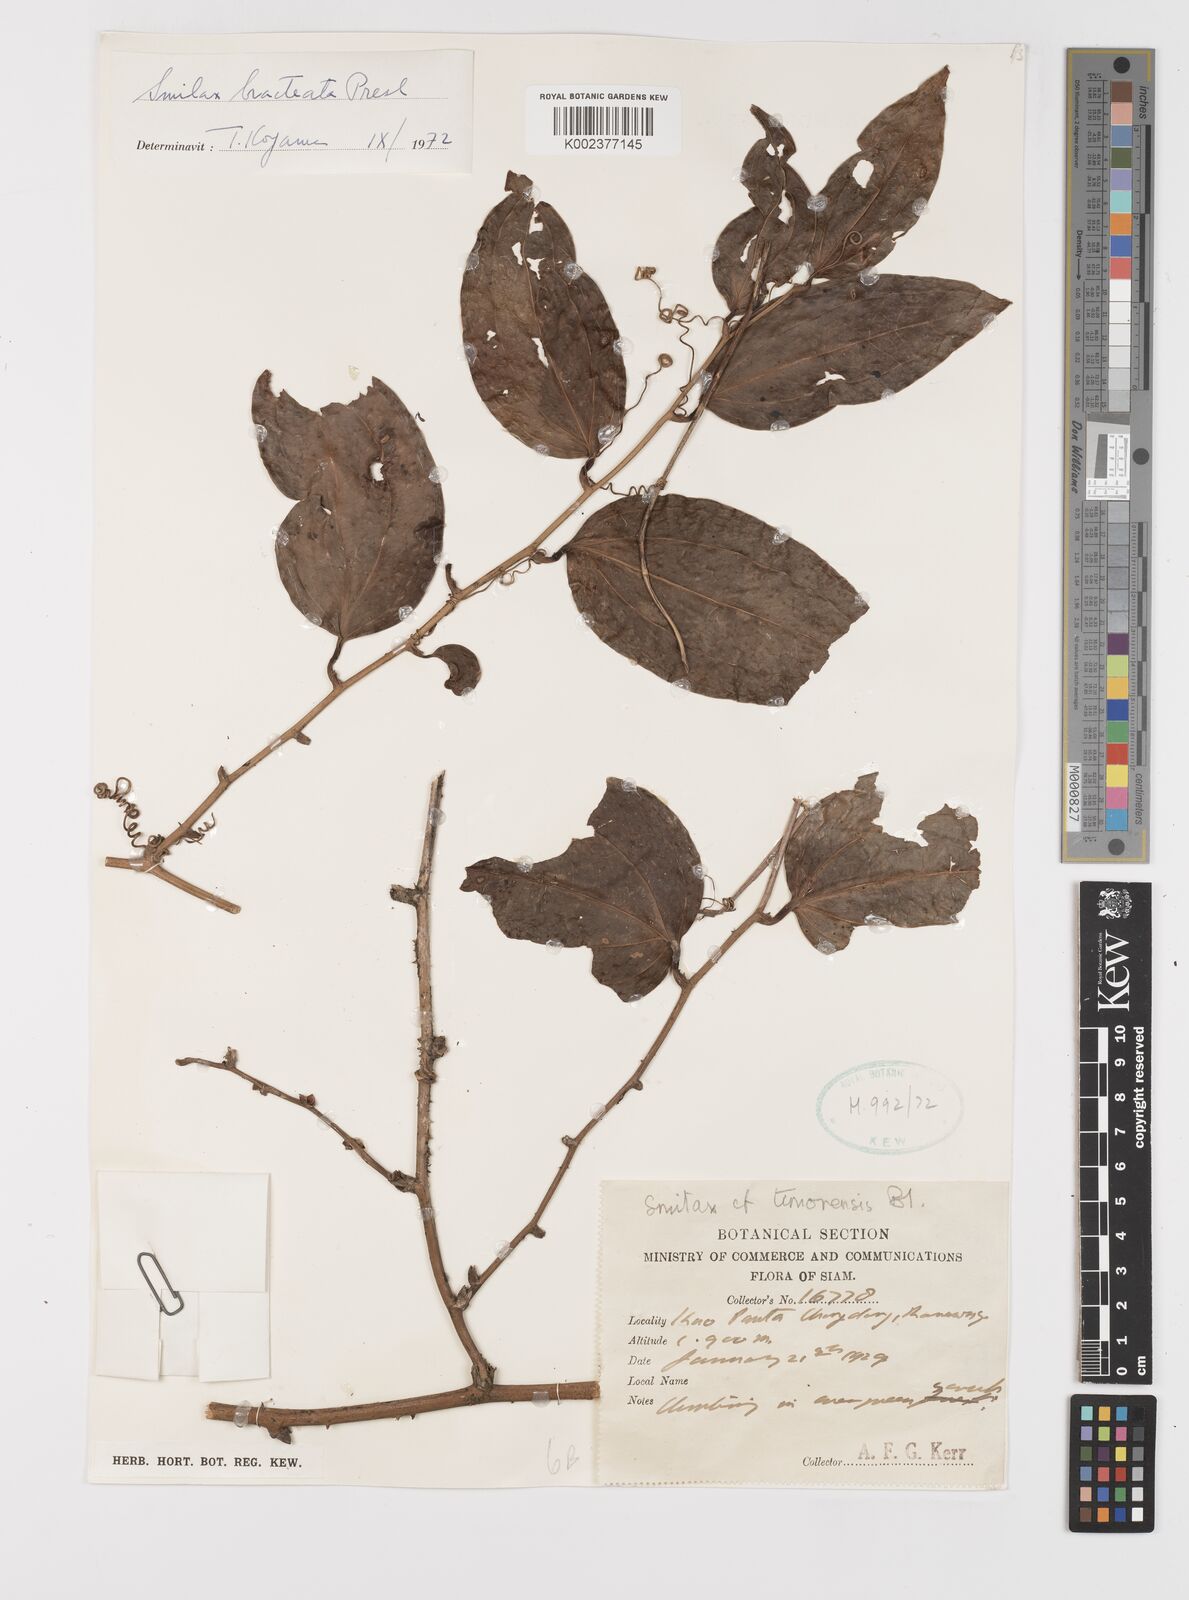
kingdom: Plantae
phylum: Tracheophyta
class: Liliopsida
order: Liliales
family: Smilacaceae
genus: Smilax
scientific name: Smilax bracteata
